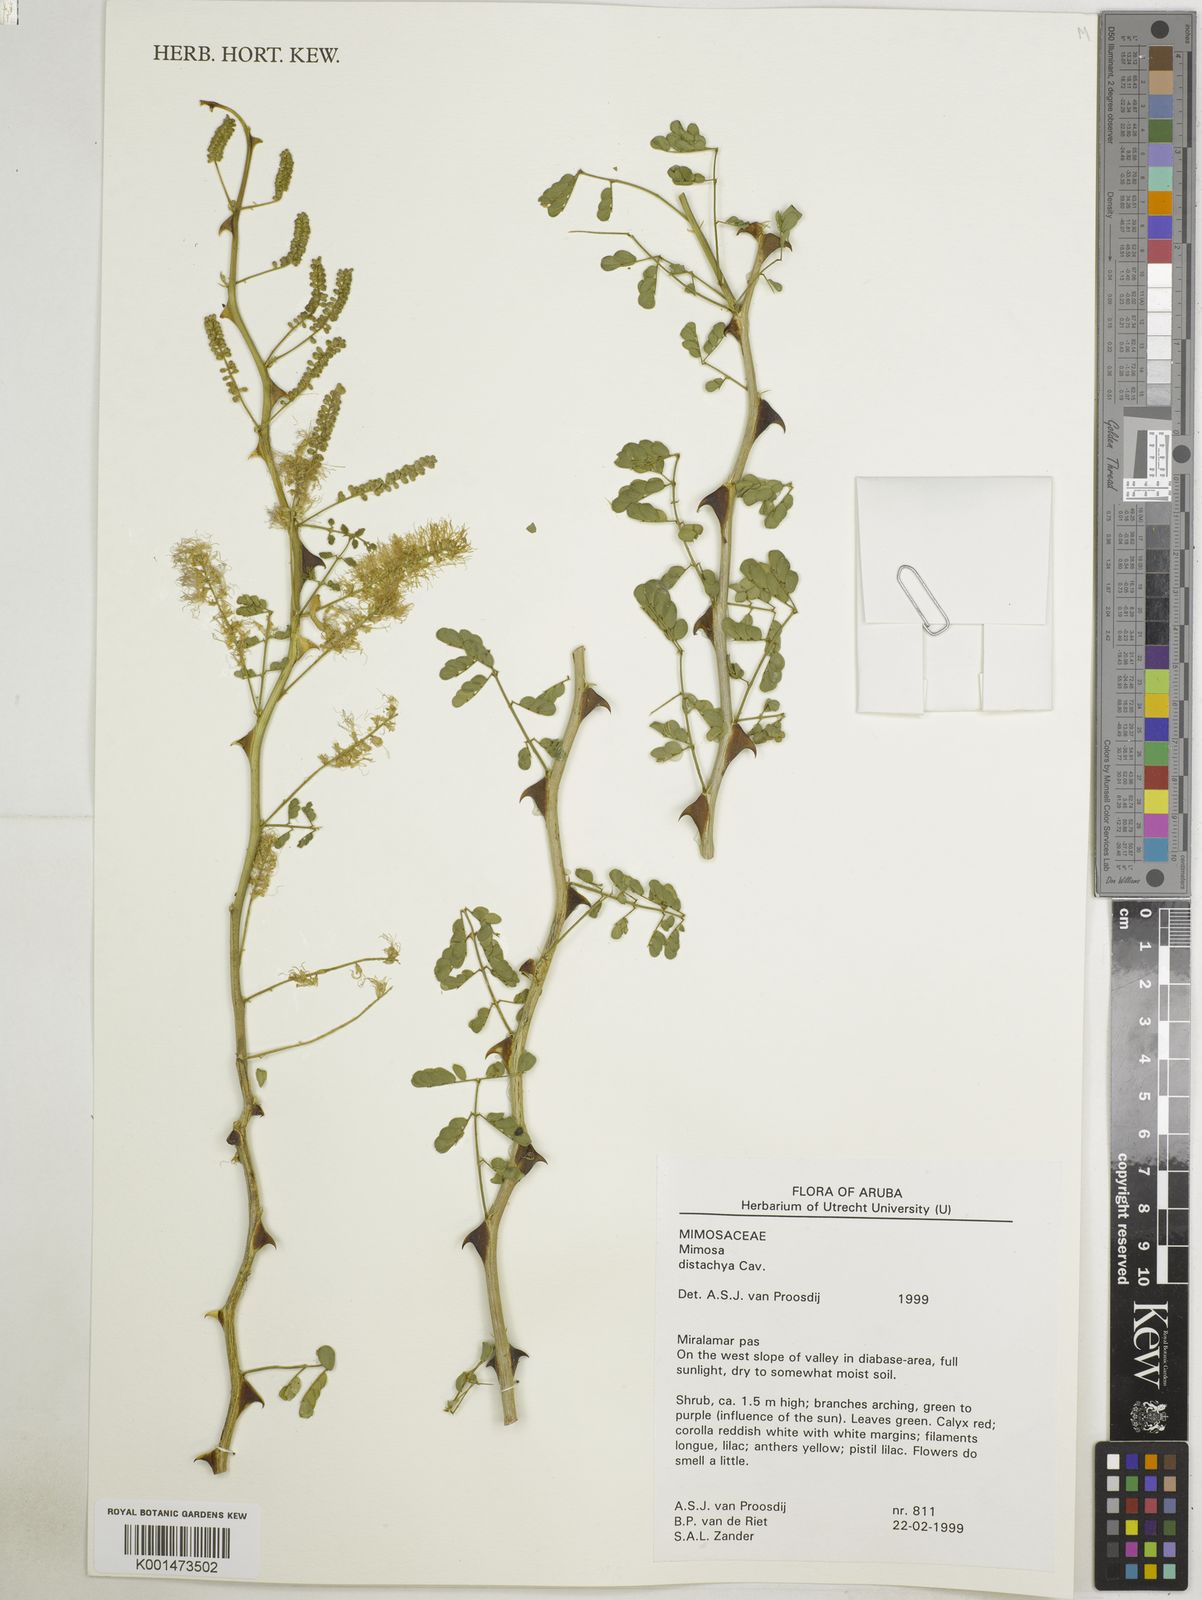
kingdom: Plantae
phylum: Tracheophyta
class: Magnoliopsida
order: Fabales
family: Fabaceae
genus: Mimosa
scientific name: Mimosa distachya
